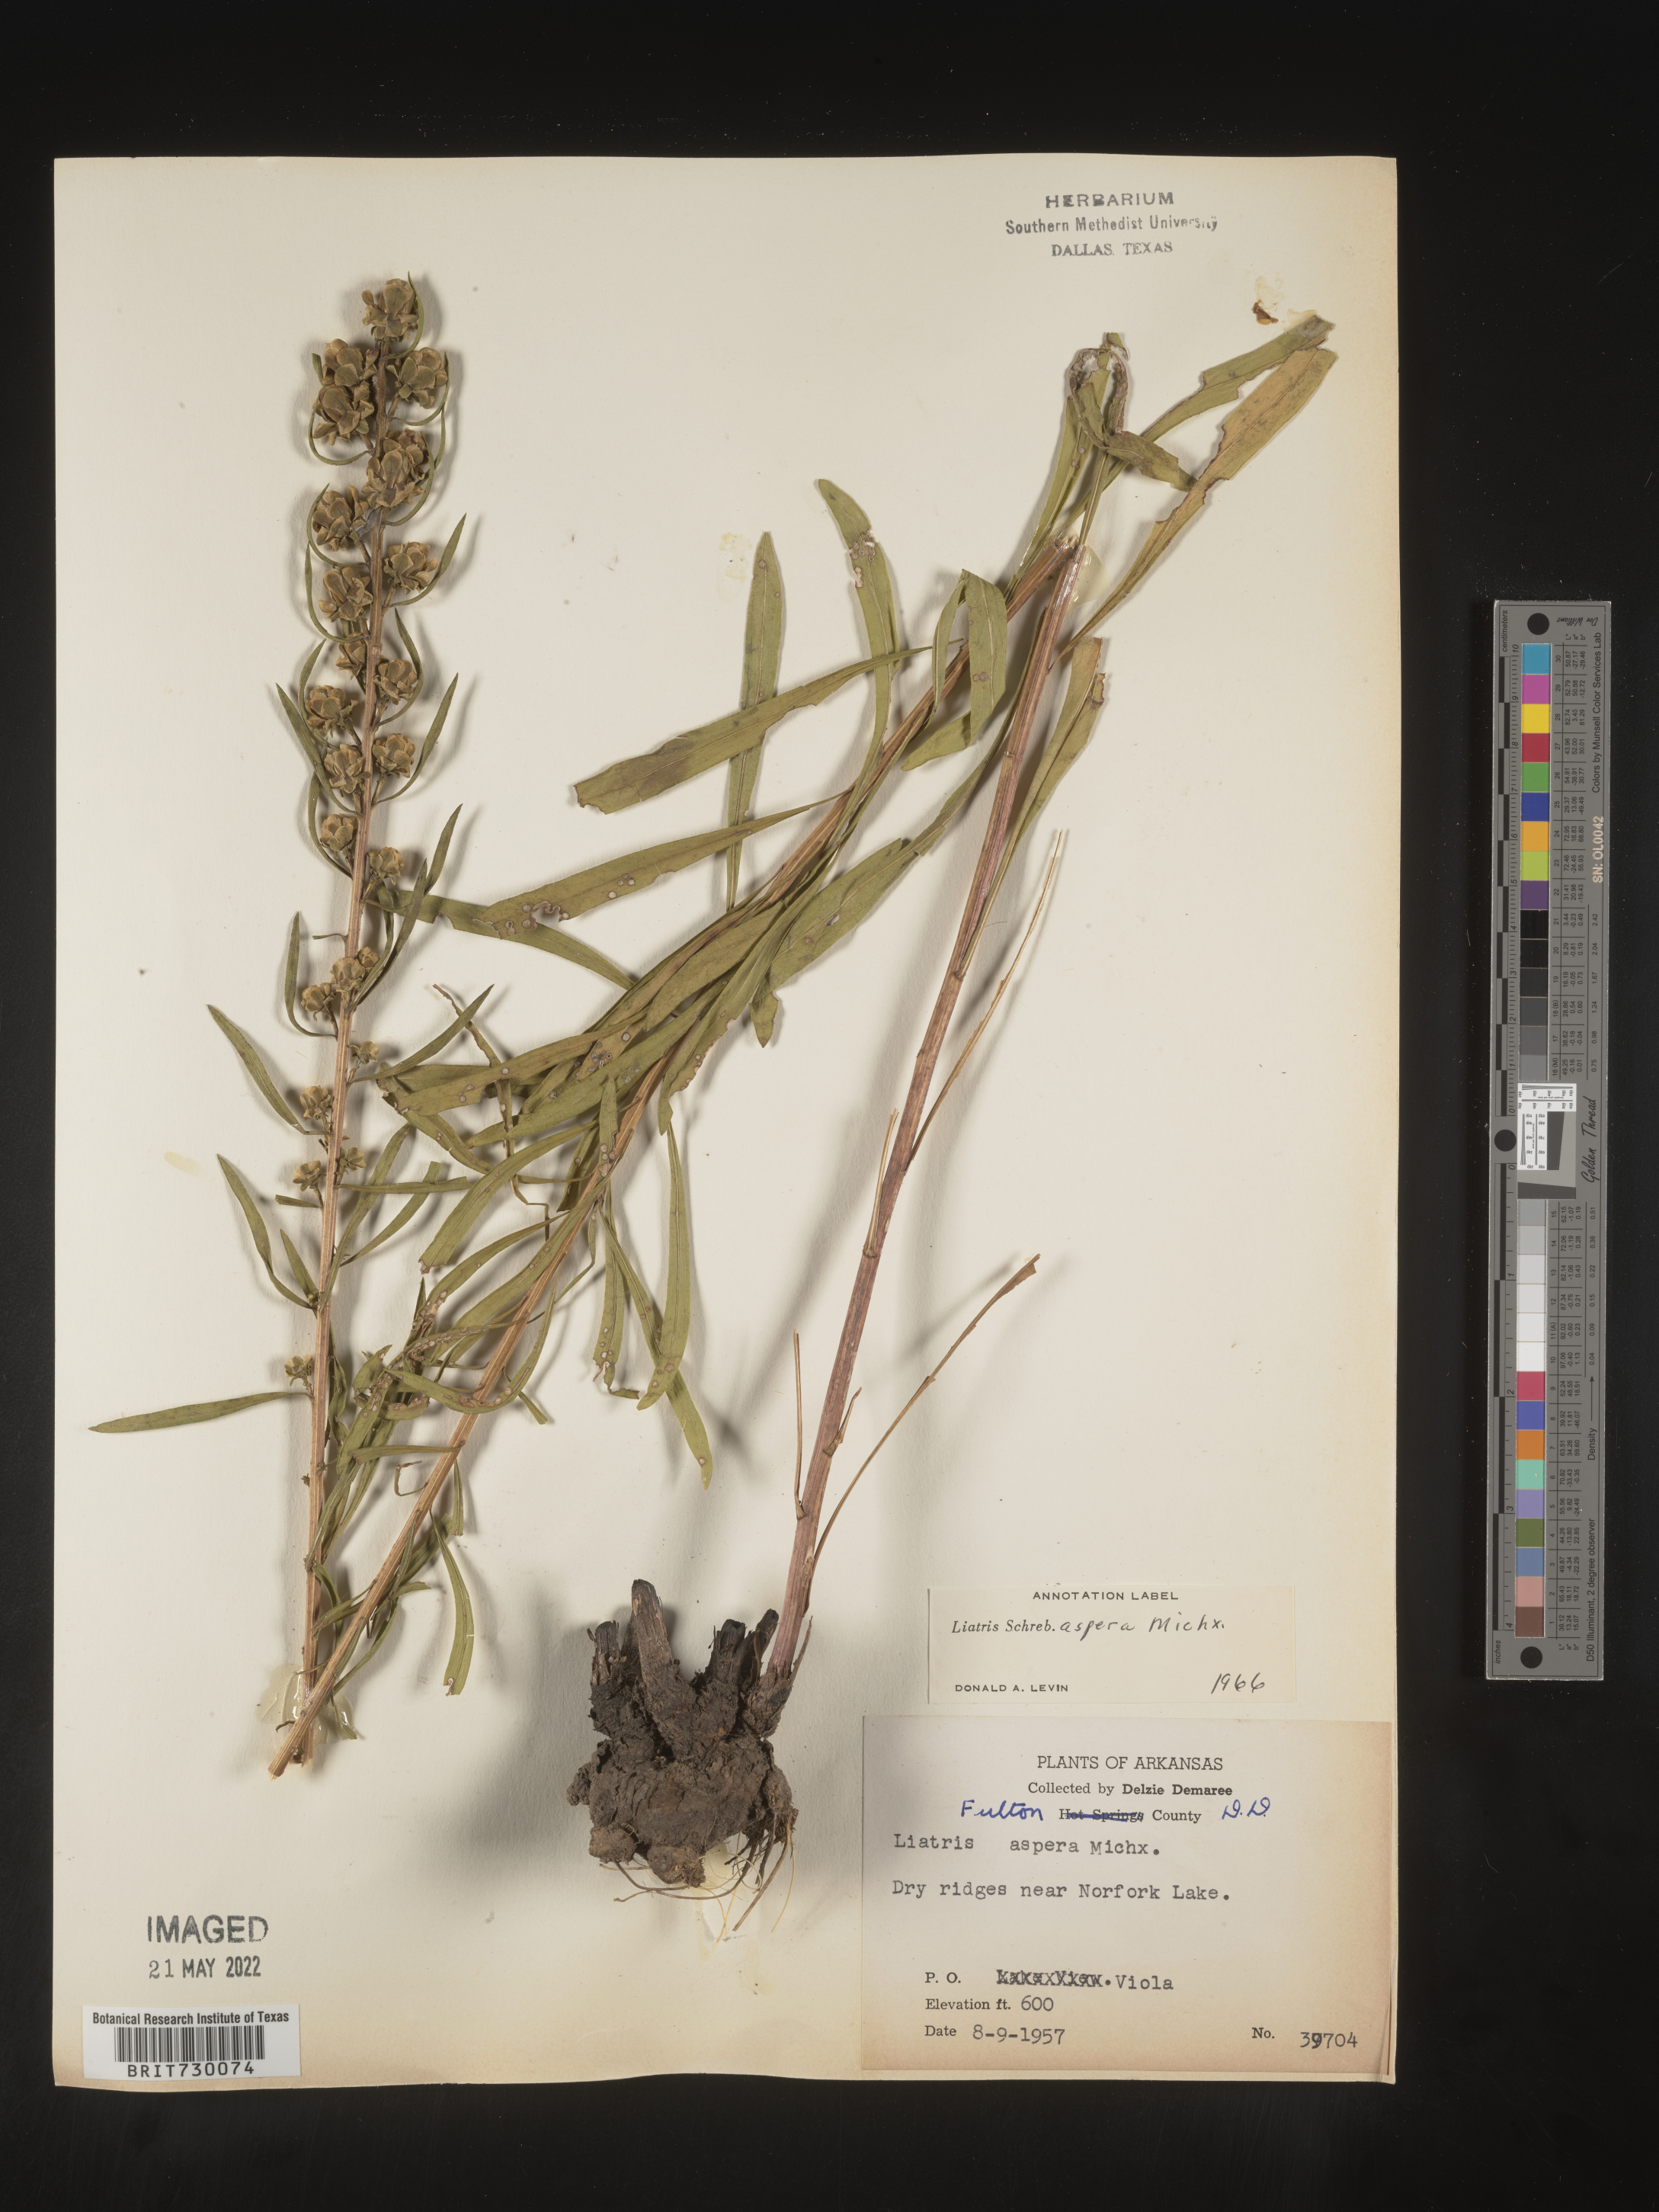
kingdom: Plantae
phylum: Tracheophyta
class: Magnoliopsida
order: Asterales
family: Asteraceae
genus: Liatris
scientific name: Liatris aspera
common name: Lacerate blazing-star
